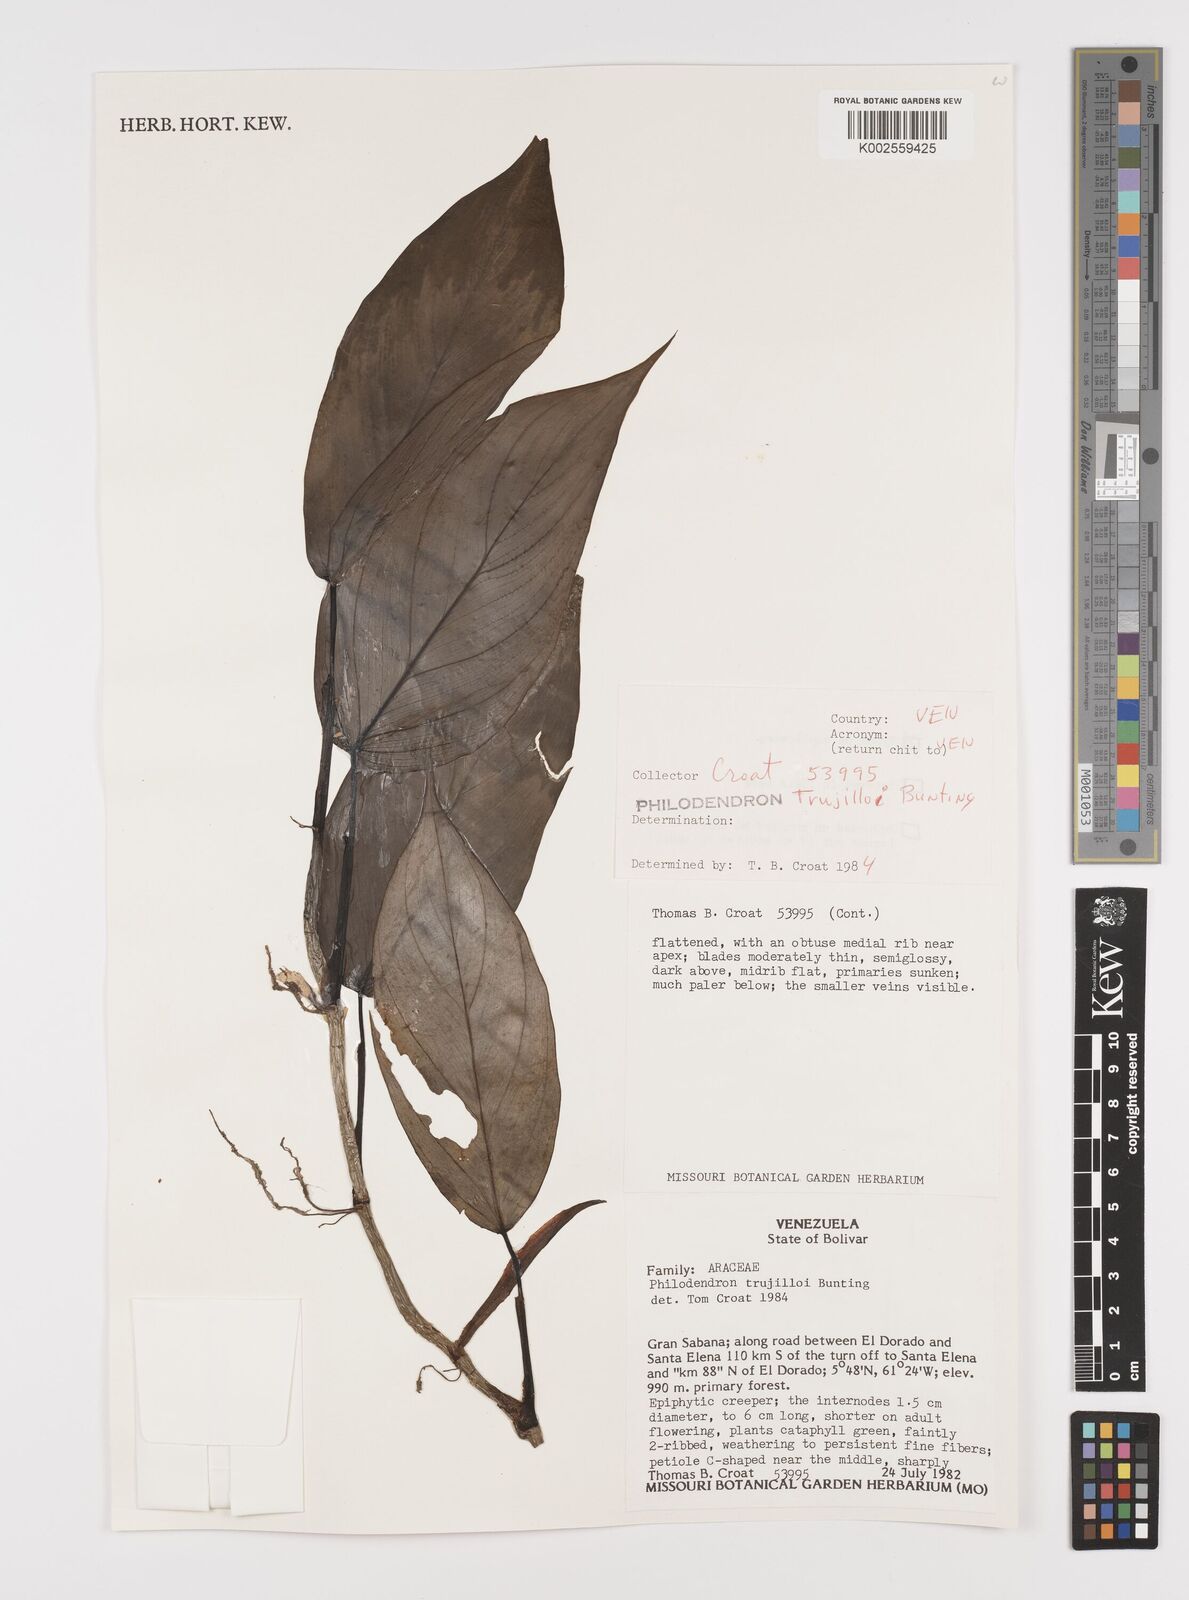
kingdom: Plantae
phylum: Tracheophyta
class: Liliopsida
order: Alismatales
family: Araceae
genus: Philodendron
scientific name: Philodendron trujilloi
